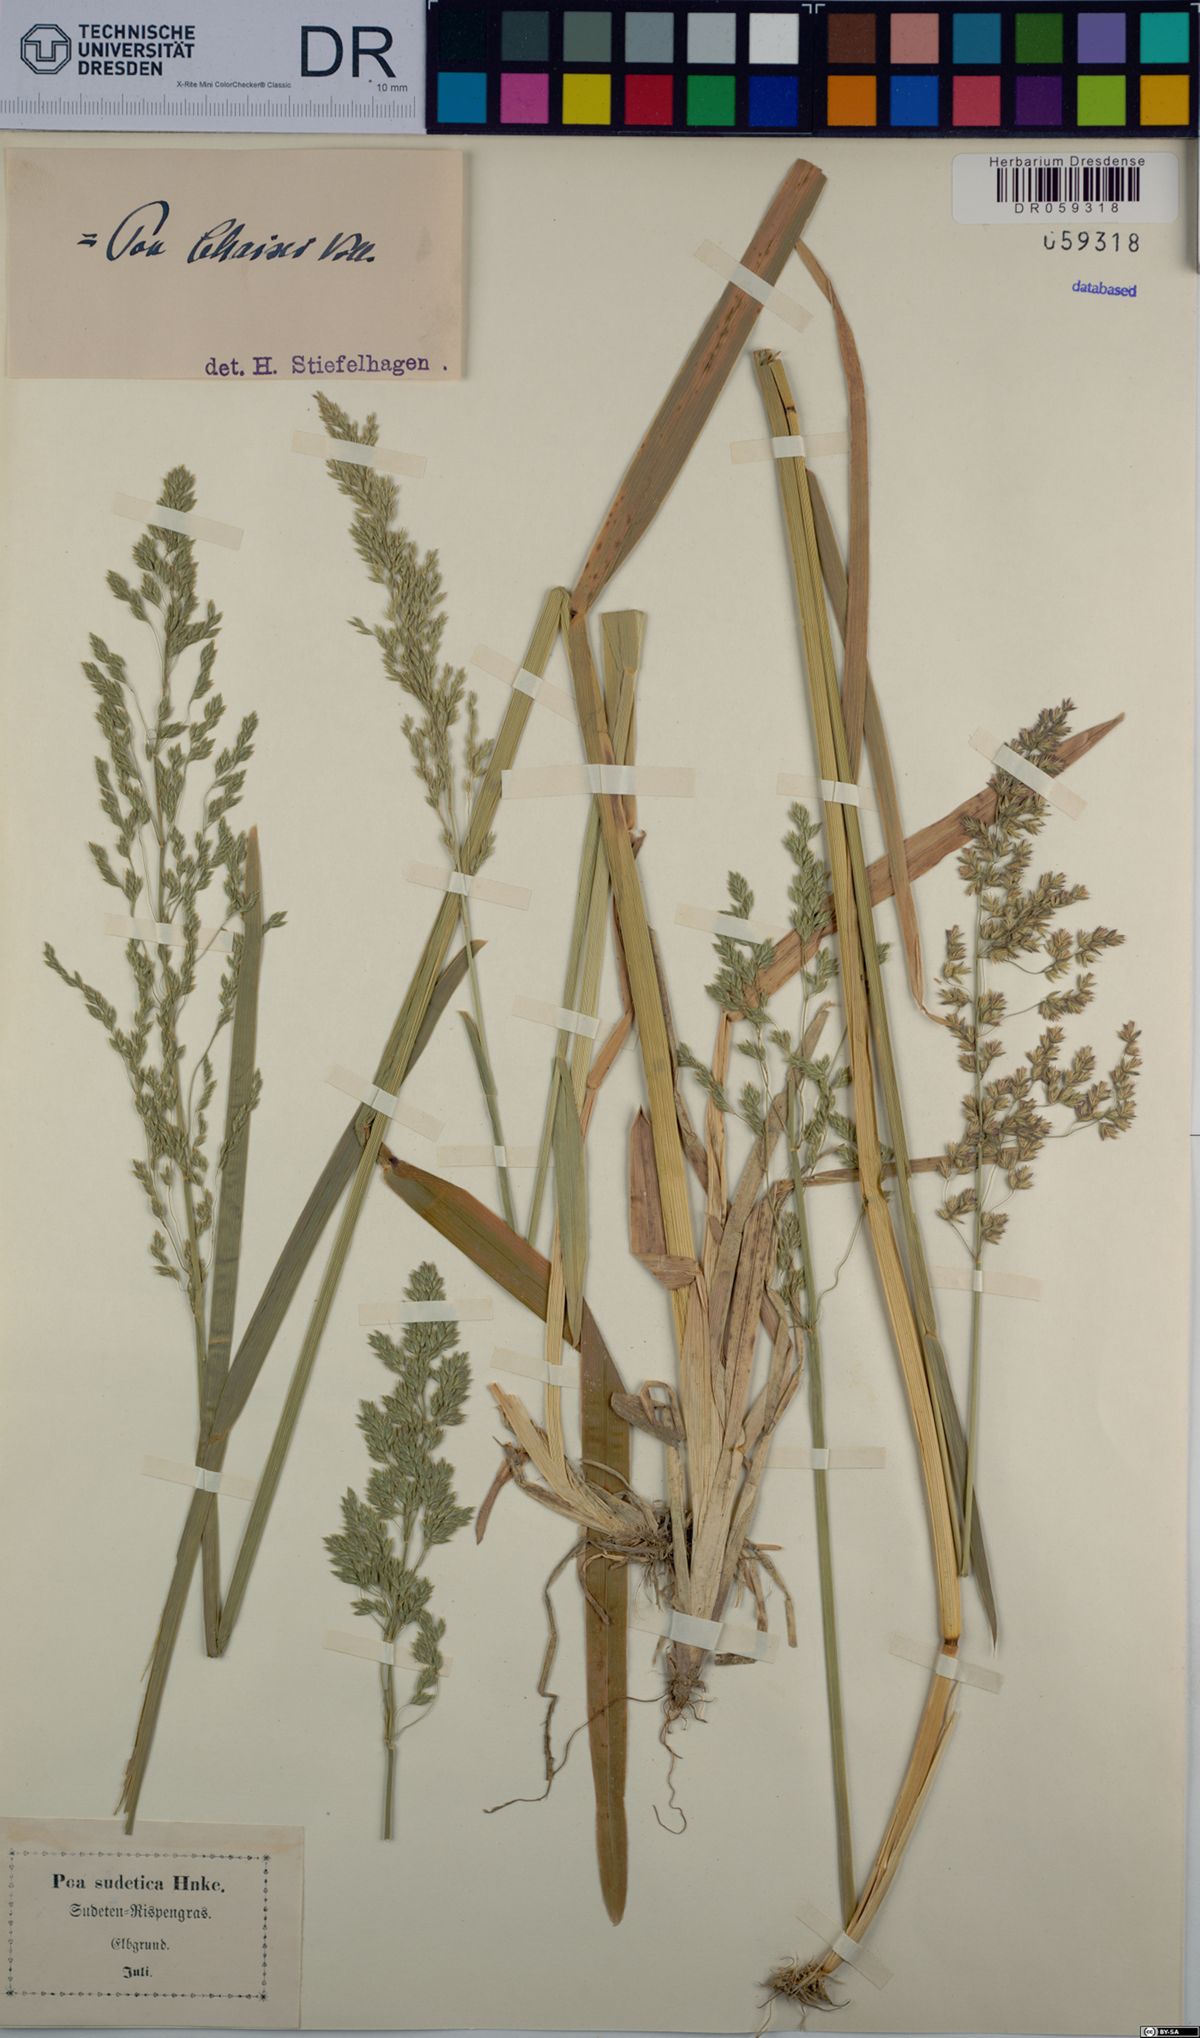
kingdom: Plantae
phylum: Tracheophyta
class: Liliopsida
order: Poales
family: Poaceae
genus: Poa
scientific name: Poa chaixii
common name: Broad-leaved meadow-grass
